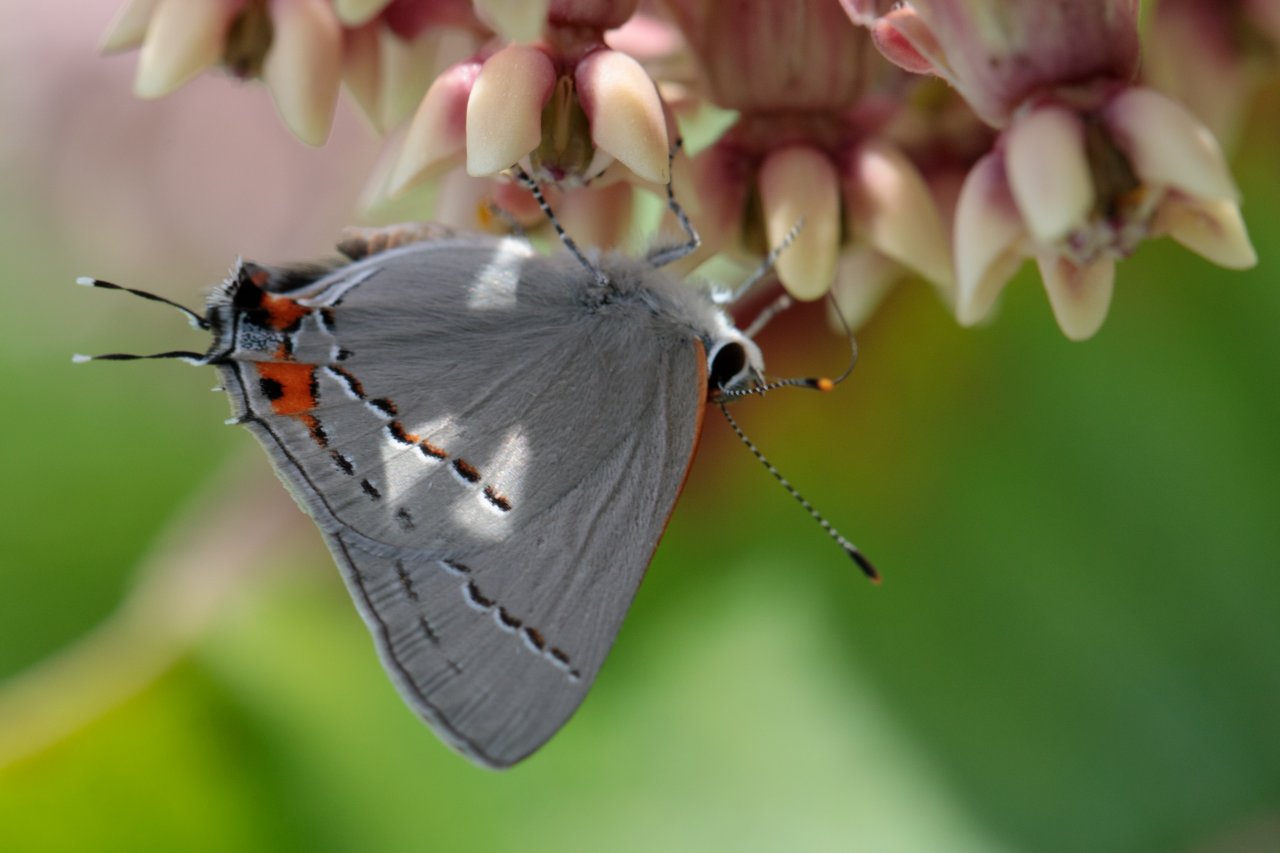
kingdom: Animalia
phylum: Arthropoda
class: Insecta
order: Lepidoptera
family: Lycaenidae
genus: Strymon
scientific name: Strymon melinus
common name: Gray Hairstreak
